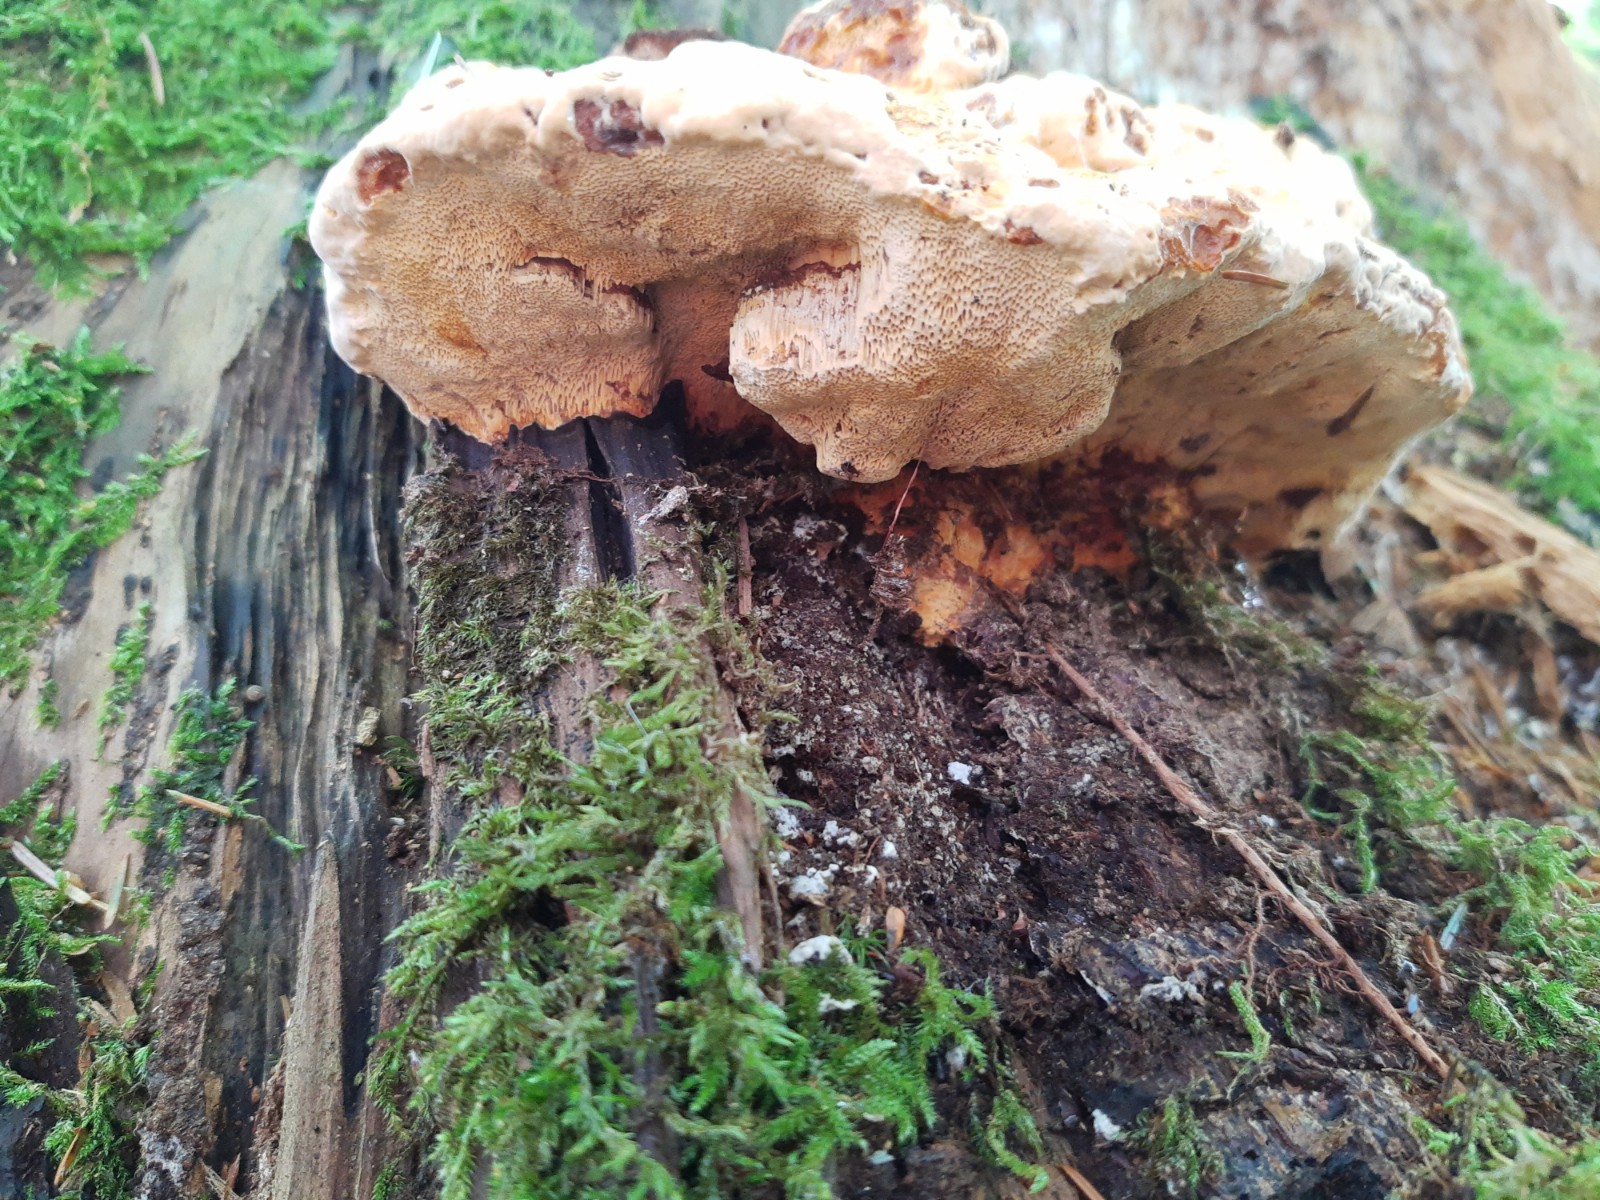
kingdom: Fungi
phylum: Basidiomycota
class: Agaricomycetes
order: Gloeophyllales
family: Gloeophyllaceae
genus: Gloeophyllum
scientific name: Gloeophyllum odoratum
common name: duftende korkhat
